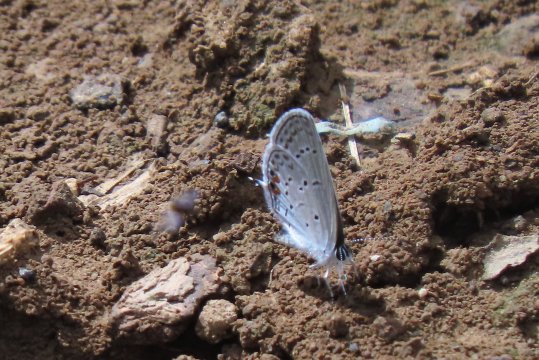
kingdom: Animalia
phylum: Arthropoda
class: Insecta
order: Lepidoptera
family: Lycaenidae
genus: Elkalyce
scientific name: Elkalyce comyntas
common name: Eastern Tailed-Blue
